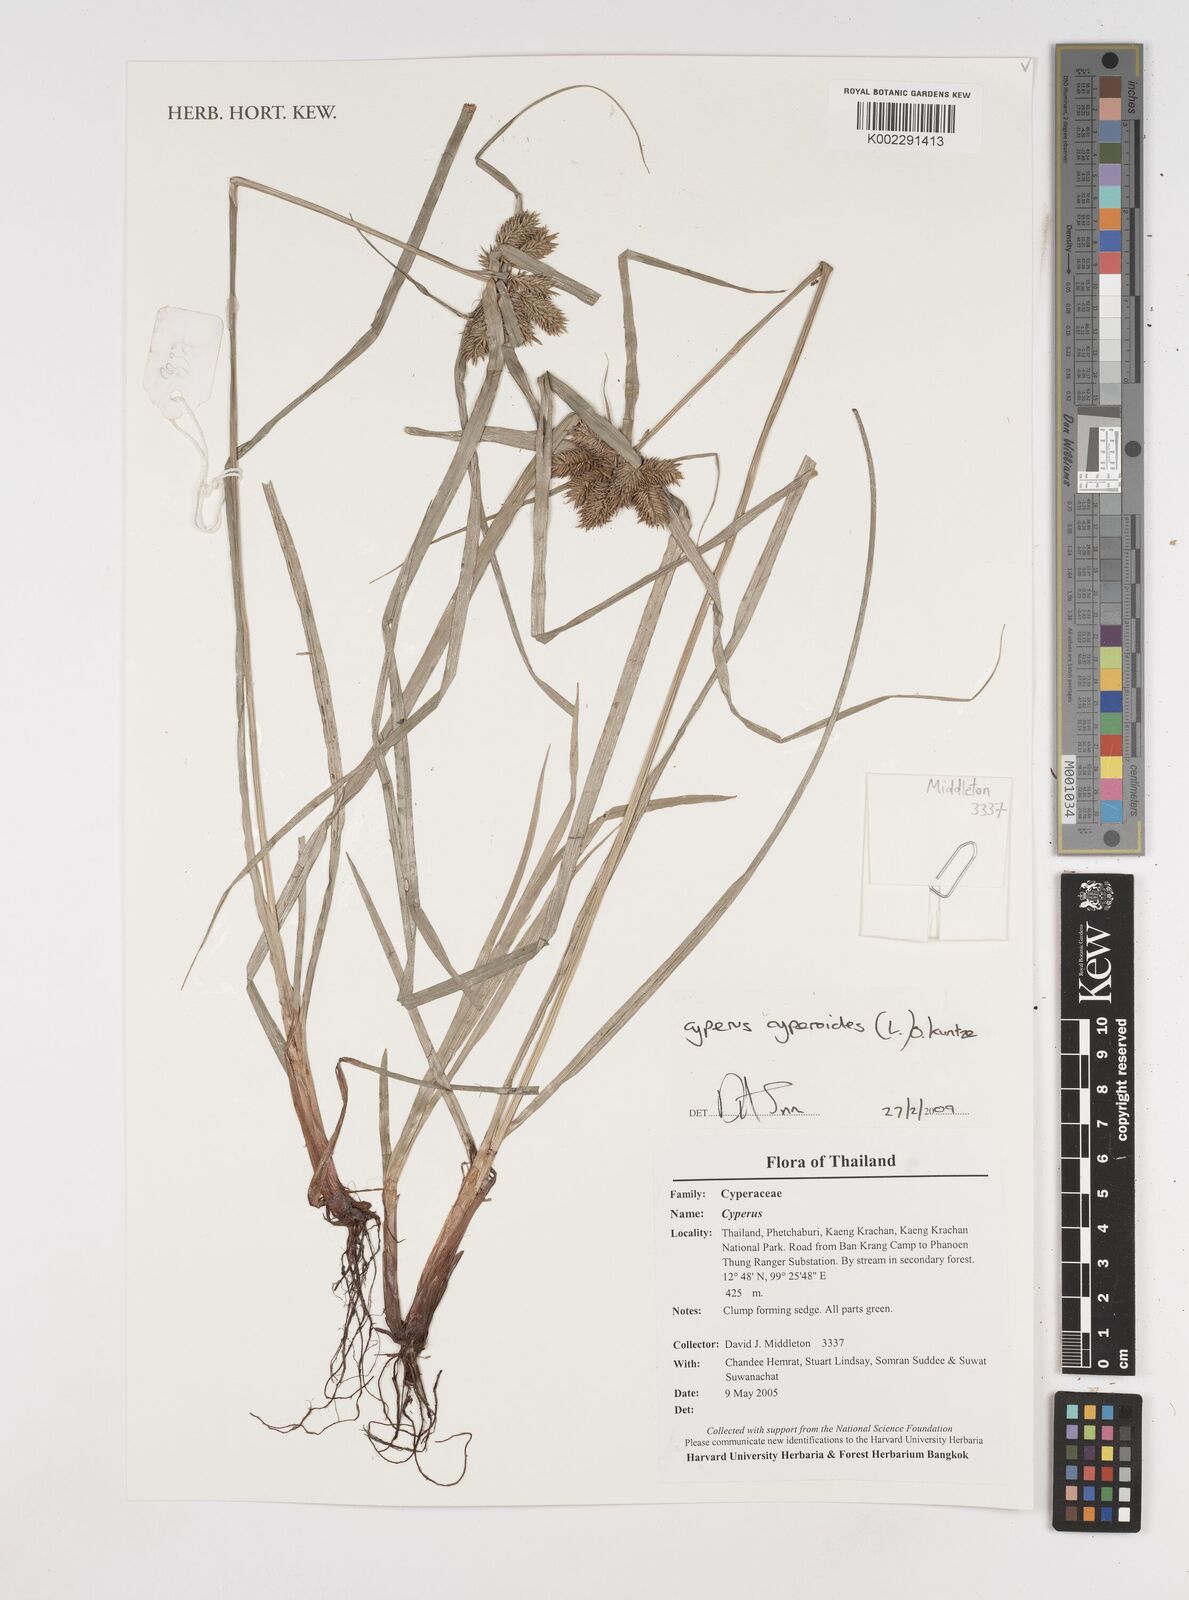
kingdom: Plantae
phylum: Tracheophyta
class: Liliopsida
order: Poales
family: Cyperaceae
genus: Cyperus
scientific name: Cyperus cyperoides
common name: Pacific island flat sedge
